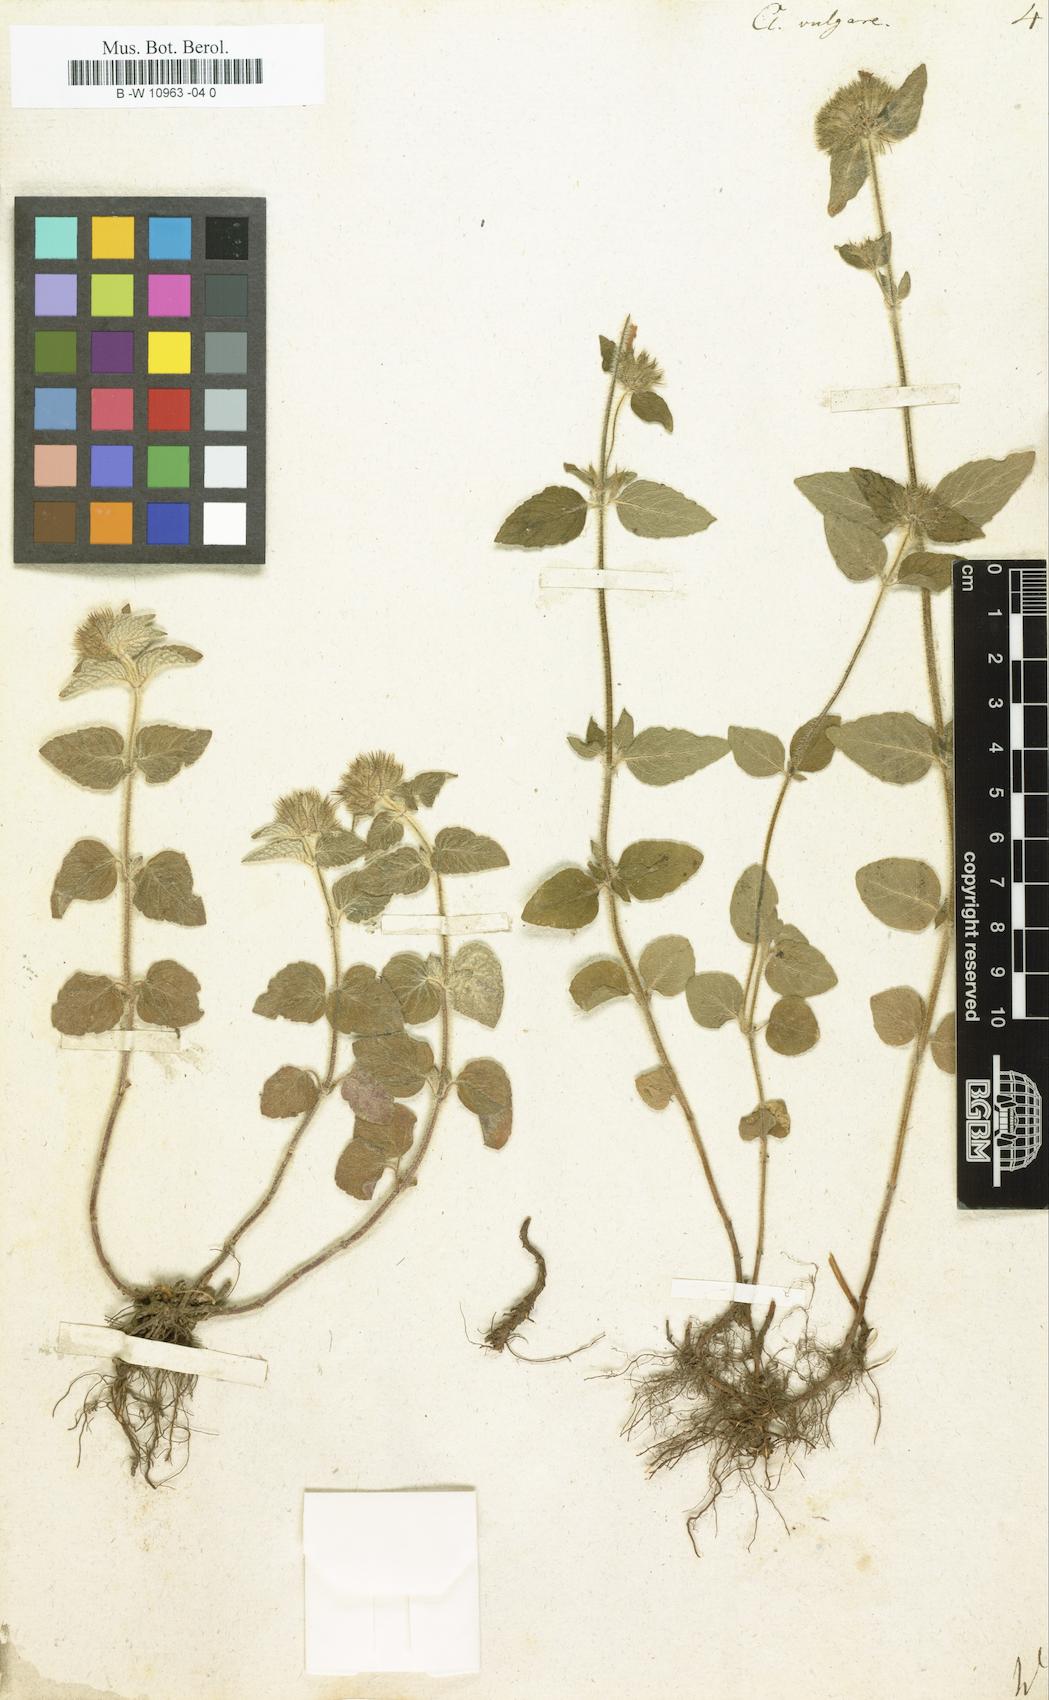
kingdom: Plantae
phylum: Tracheophyta
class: Magnoliopsida
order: Lamiales
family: Lamiaceae
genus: Clinopodium
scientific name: Clinopodium vulgare
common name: Wild basil
